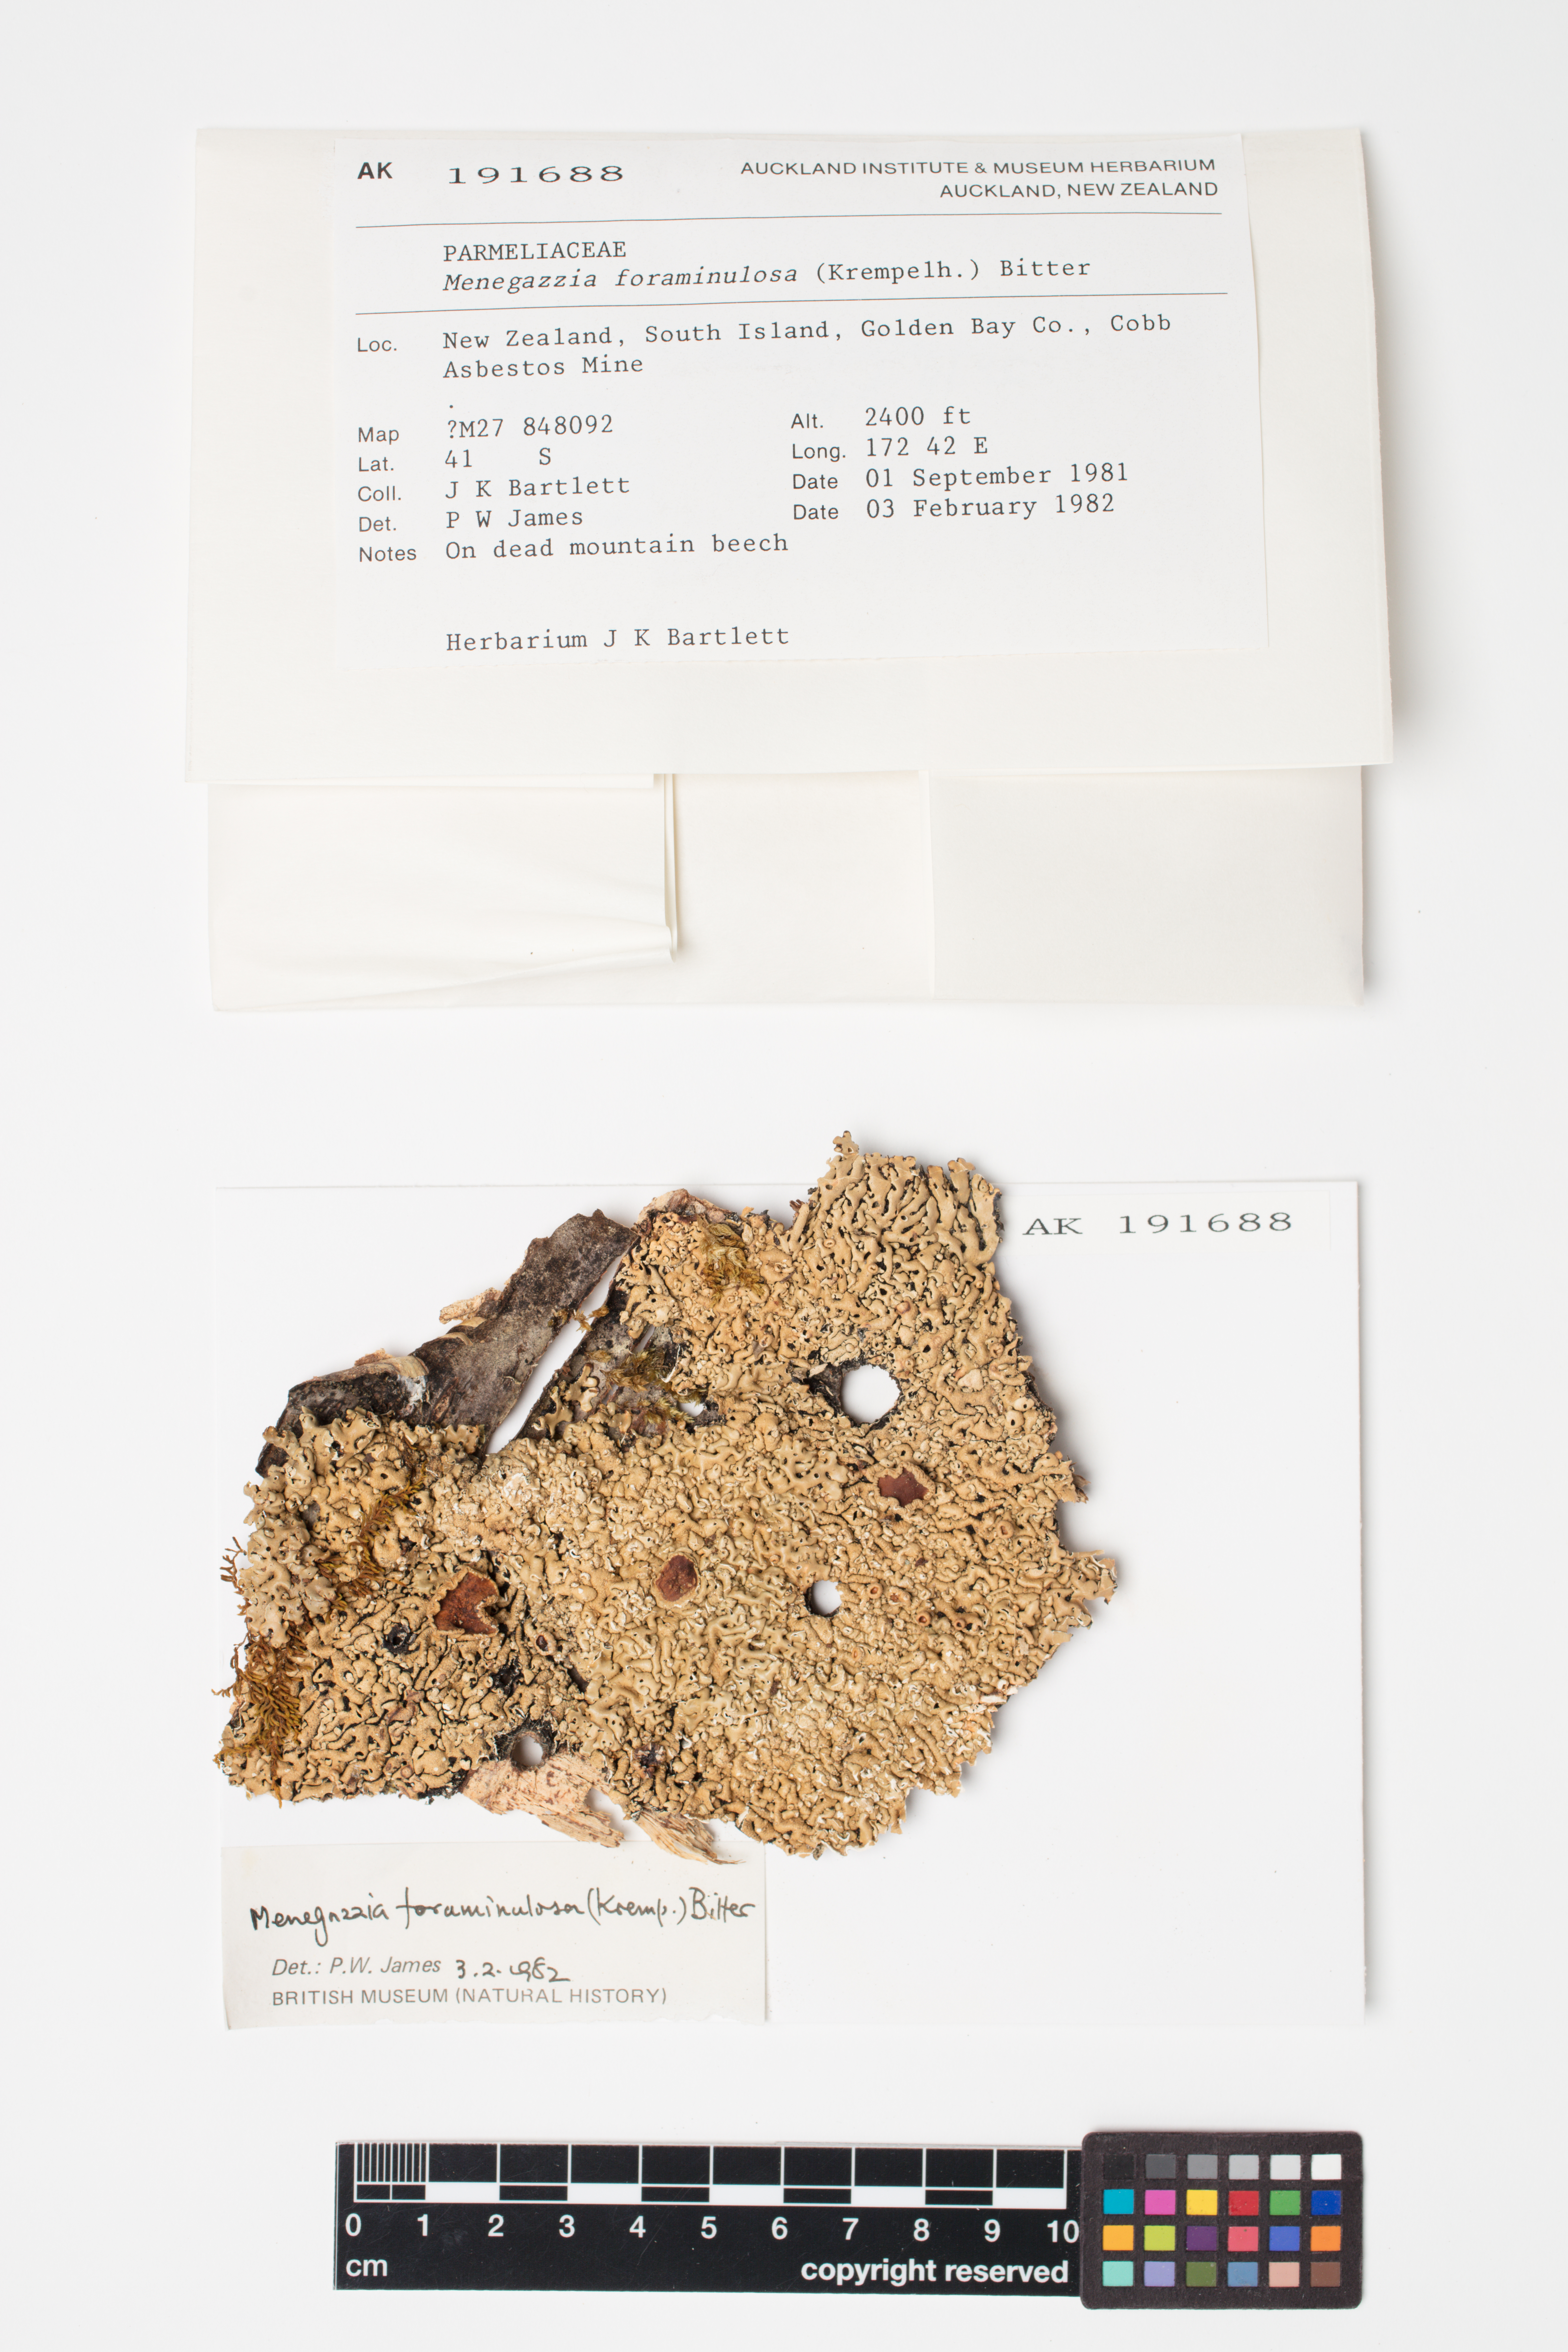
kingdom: Fungi
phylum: Ascomycota
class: Lecanoromycetes
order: Lecanorales
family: Parmeliaceae
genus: Menegazzia
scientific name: Menegazzia
